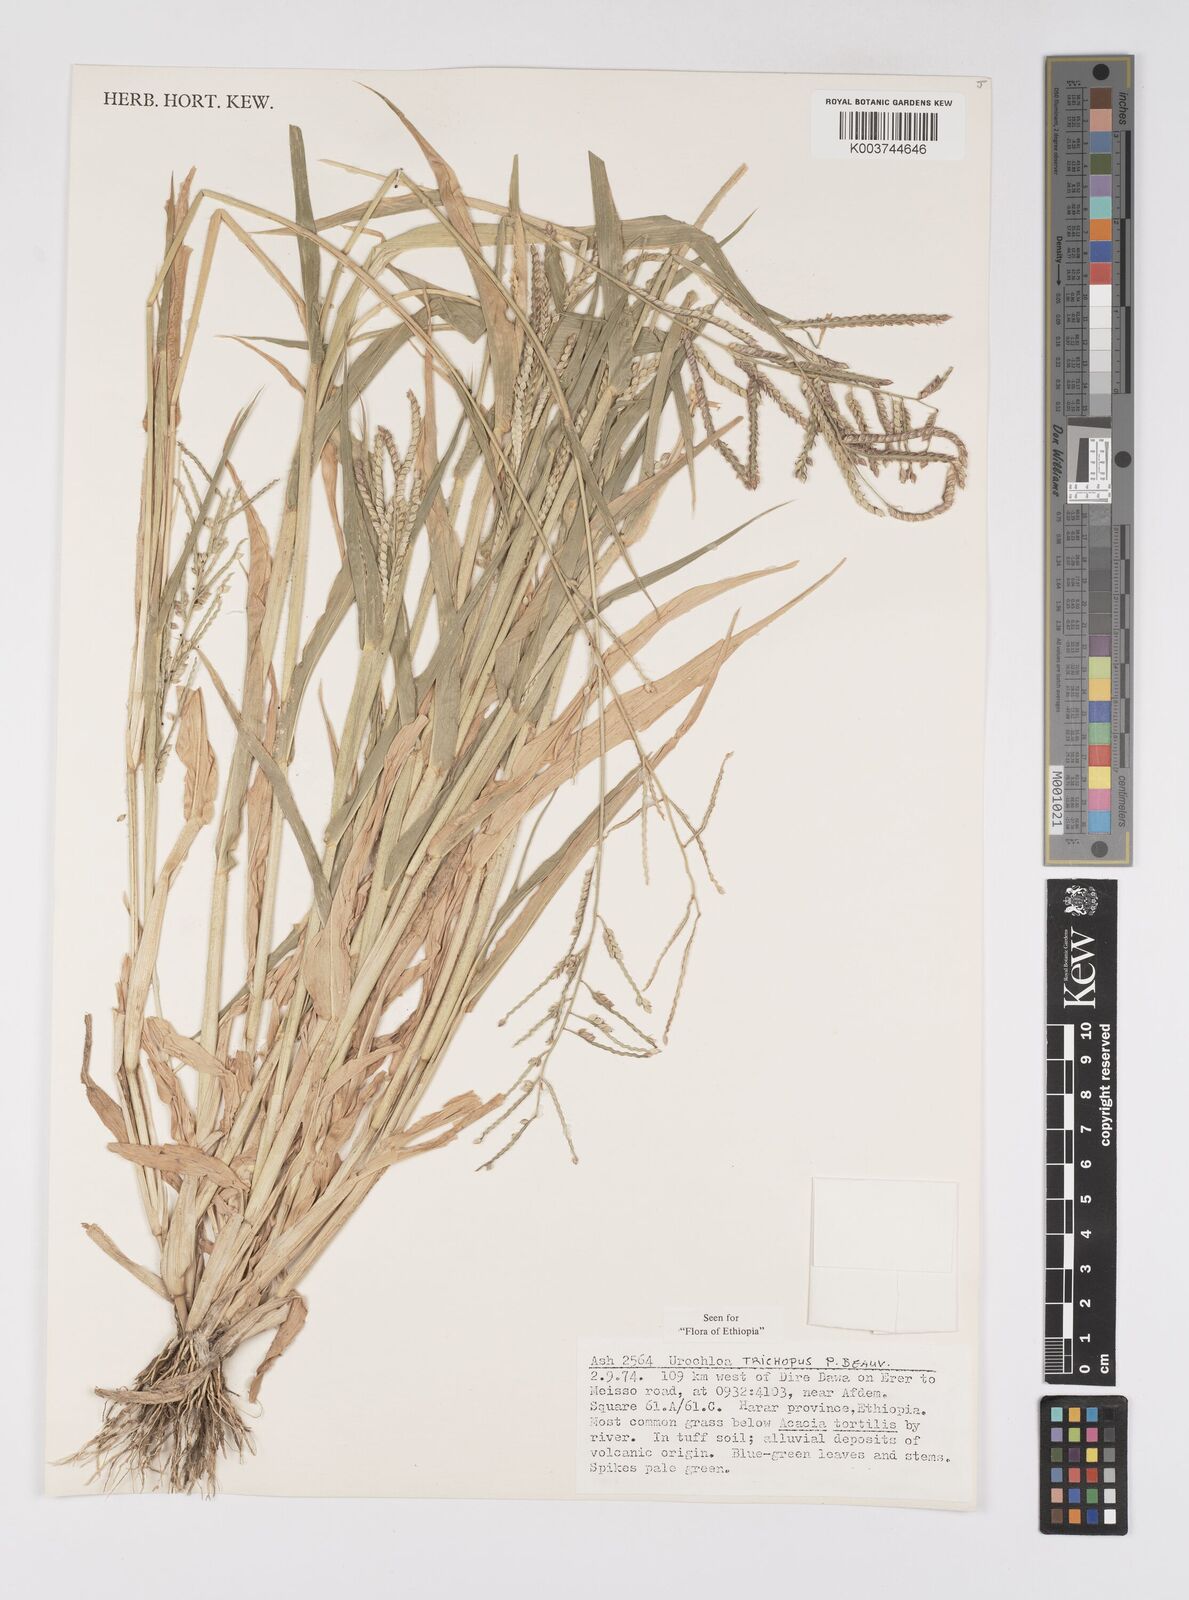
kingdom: Plantae
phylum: Tracheophyta
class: Liliopsida
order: Poales
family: Poaceae
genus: Urochloa
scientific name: Urochloa trichopus
